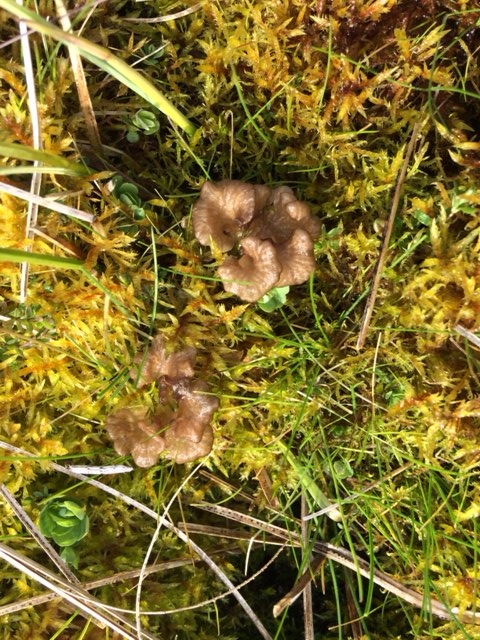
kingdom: Fungi
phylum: Basidiomycota
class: Agaricomycetes
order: Agaricales
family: Hygrophoraceae
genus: Arrhenia
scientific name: Arrhenia lobata
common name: siddende fontænehat
